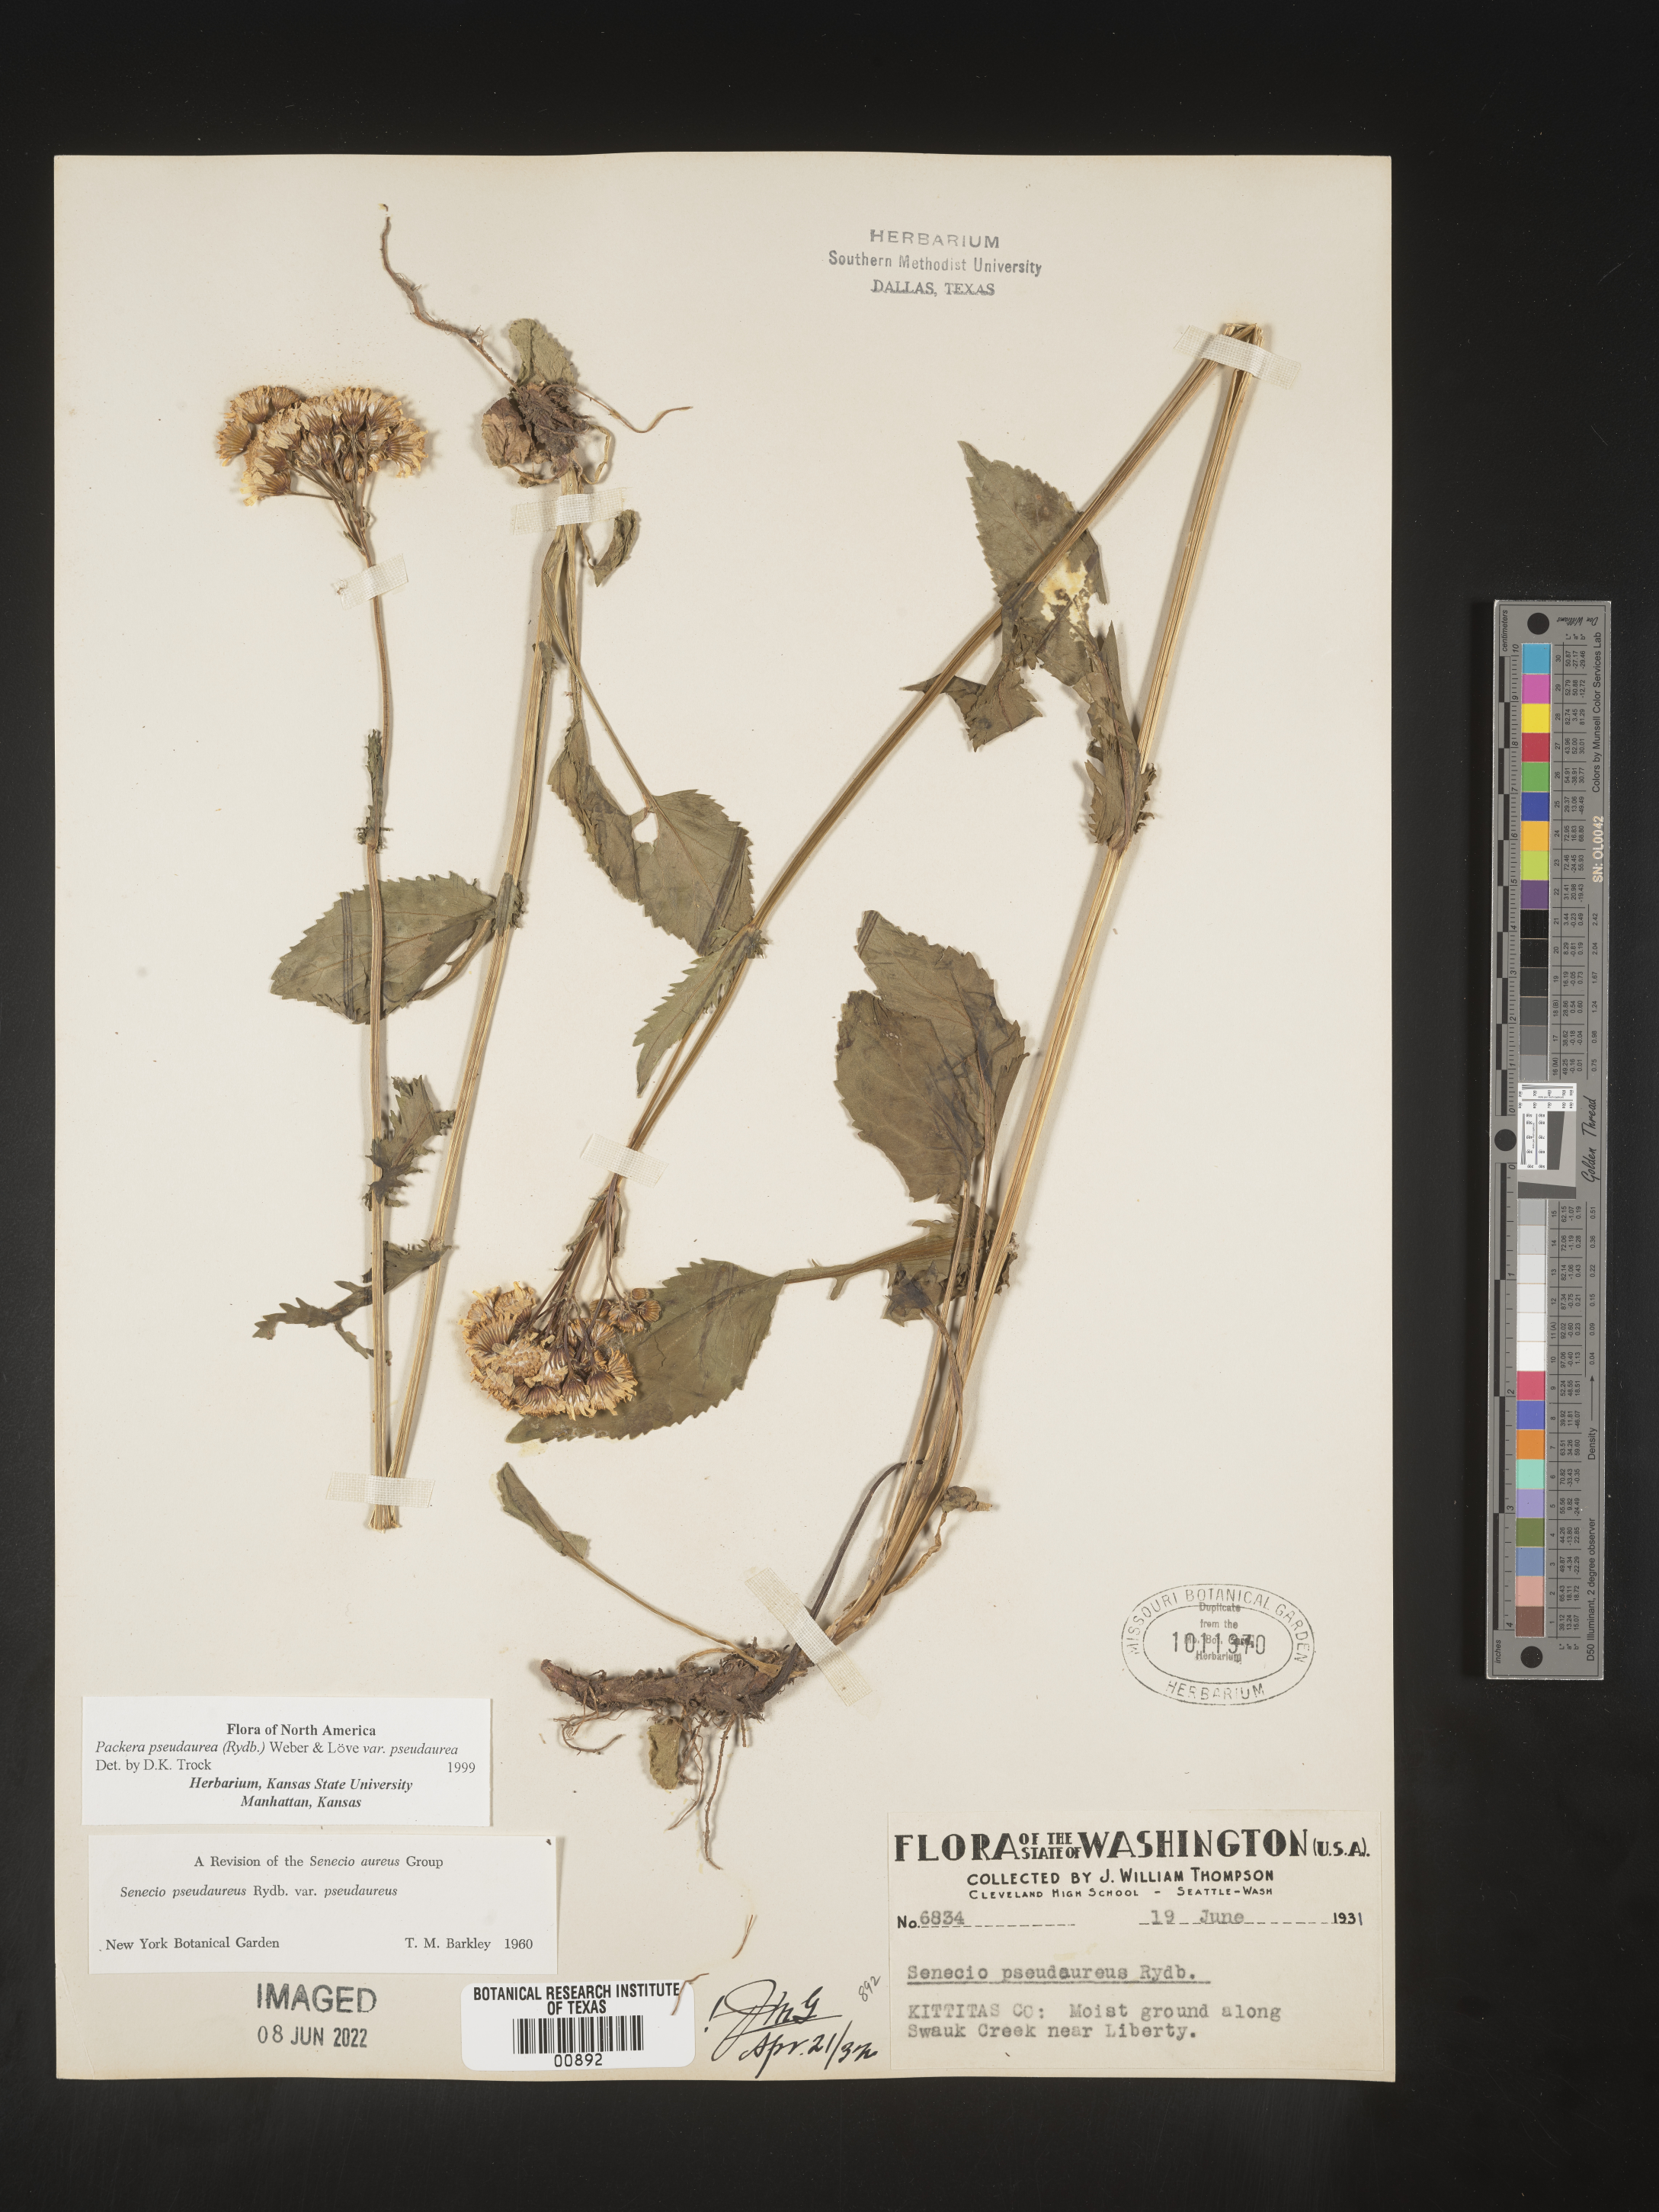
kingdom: Plantae
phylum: Tracheophyta
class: Magnoliopsida
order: Asterales
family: Asteraceae
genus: Packera
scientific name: Packera pseudaurea
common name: False-gold groundsel
